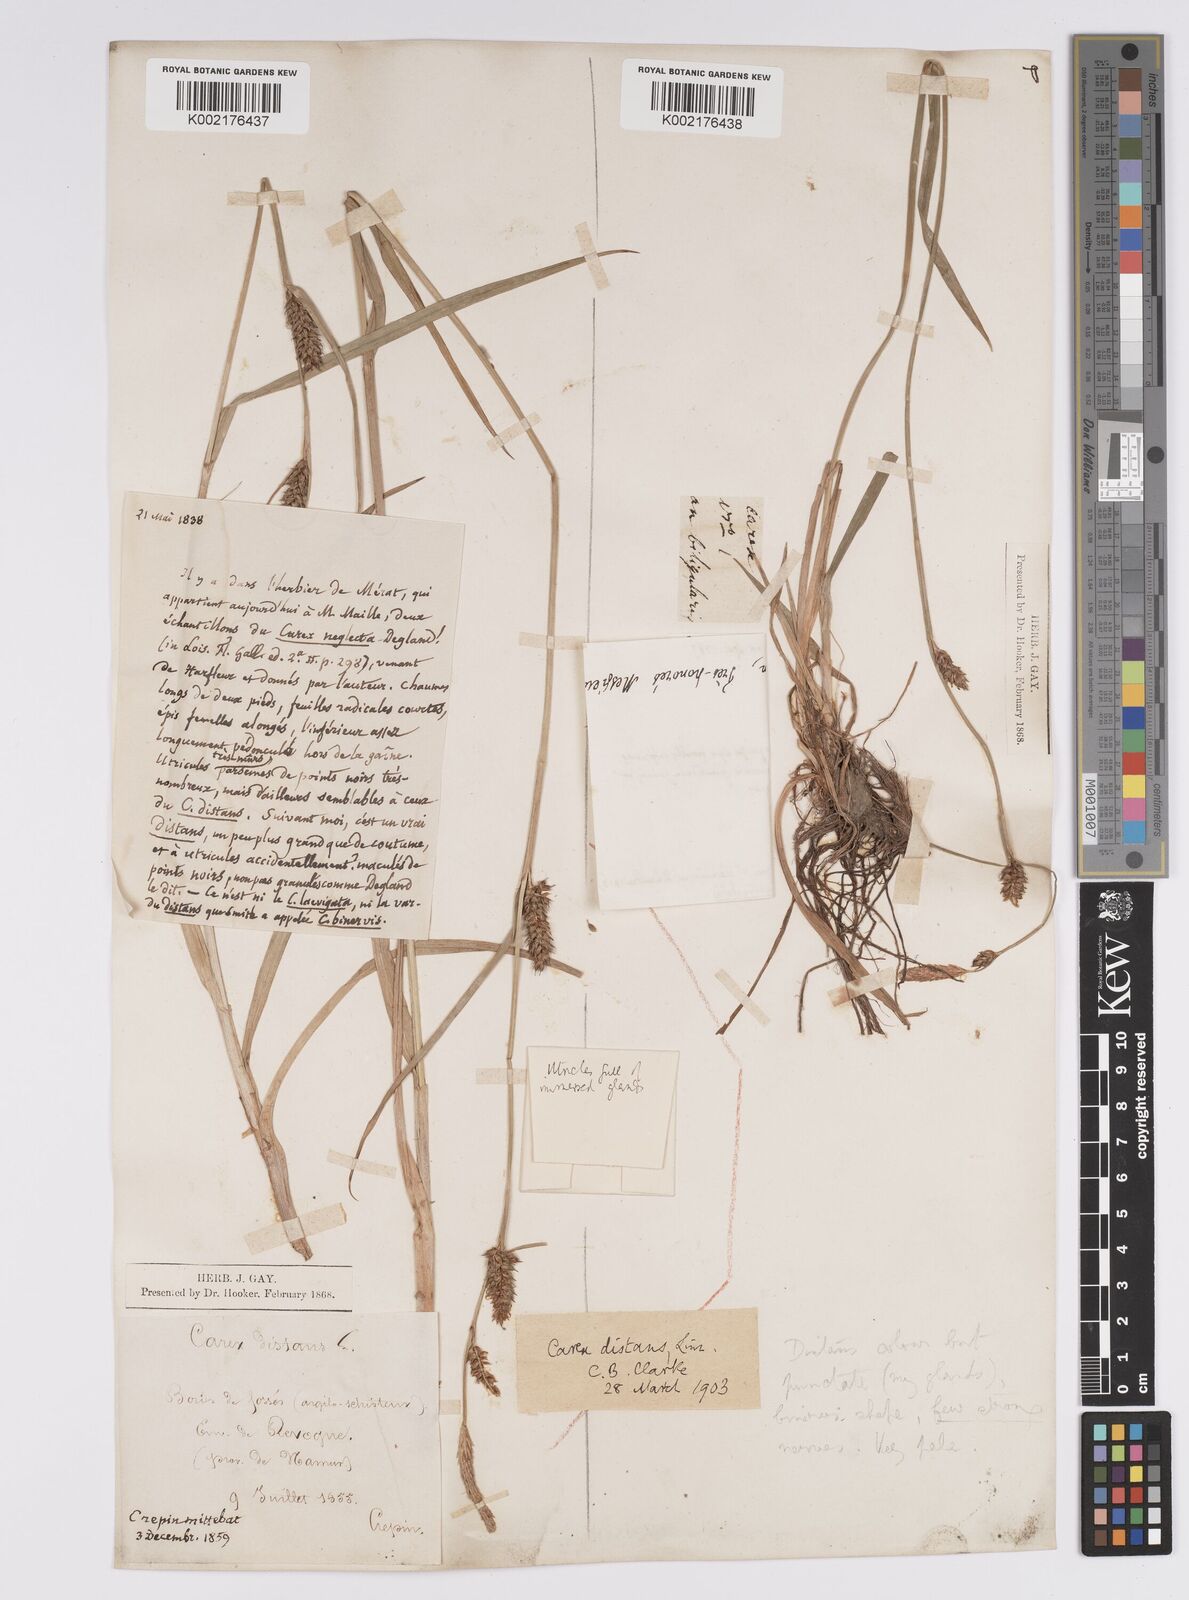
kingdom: Plantae
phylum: Tracheophyta
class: Liliopsida
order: Poales
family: Cyperaceae
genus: Carex
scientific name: Carex distans
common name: Distant sedge
